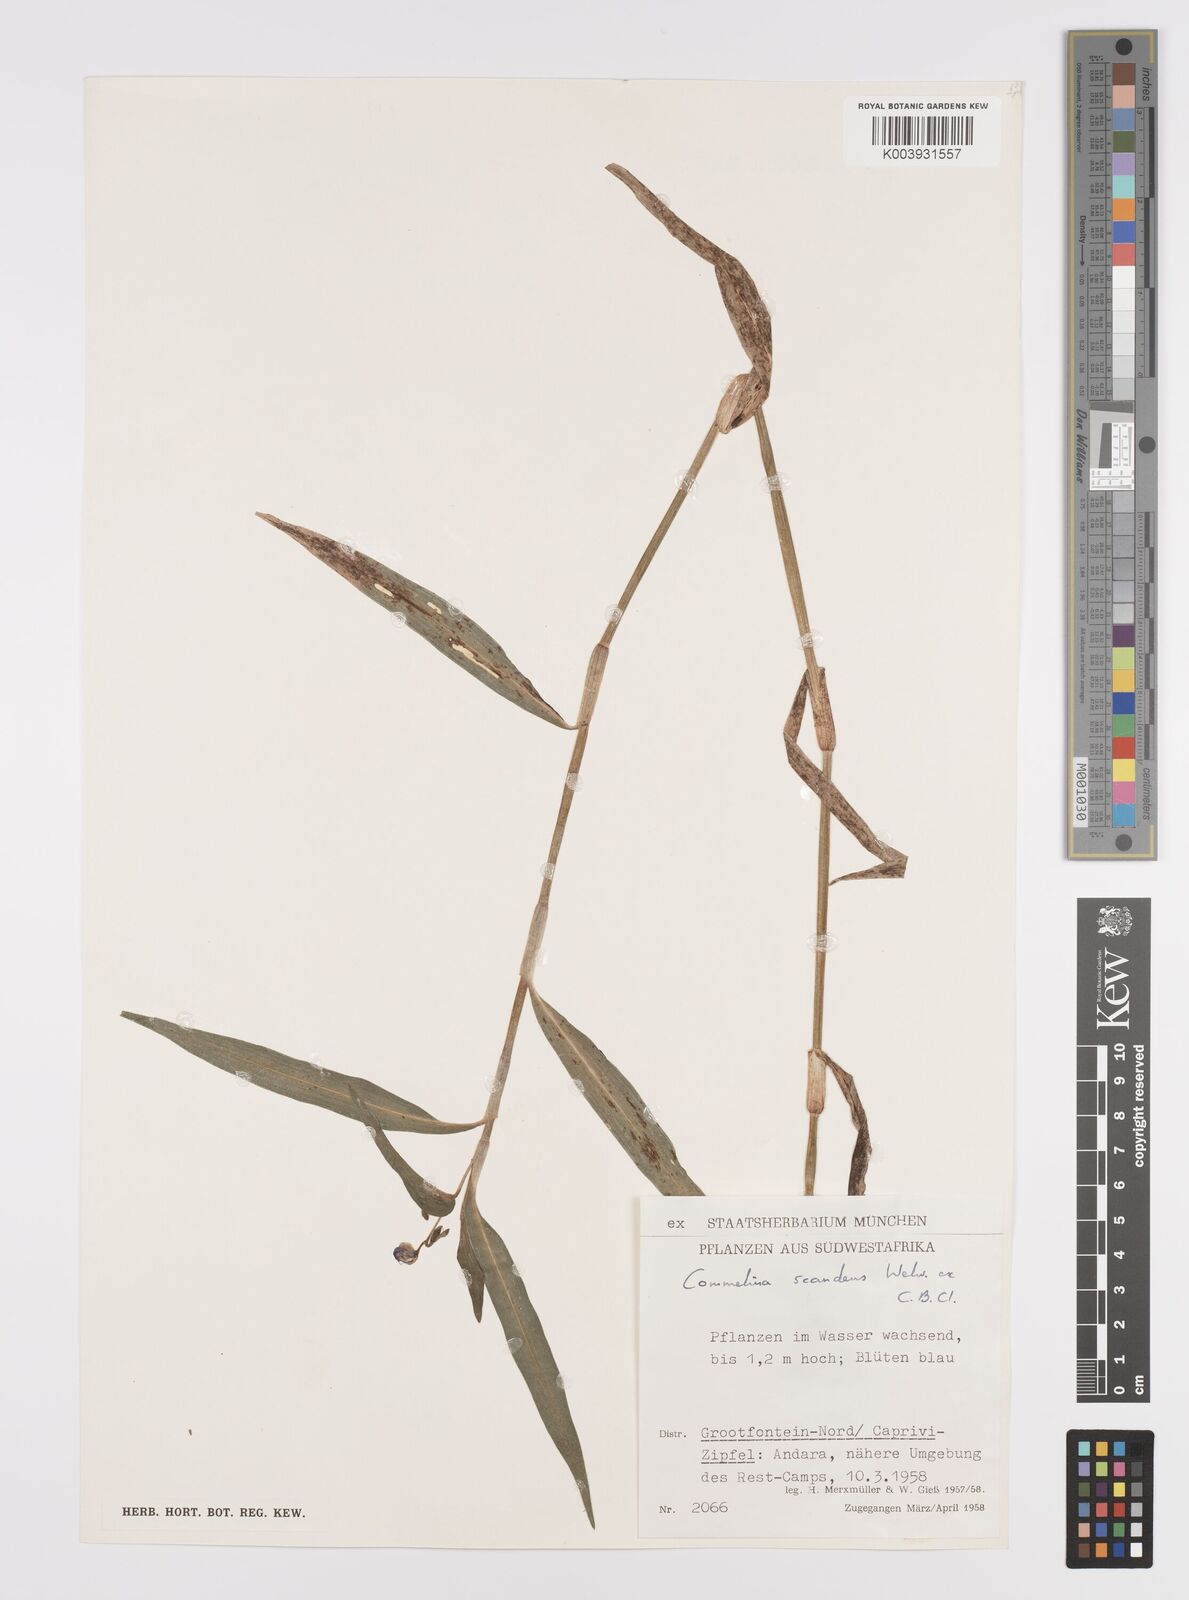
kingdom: Plantae
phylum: Tracheophyta
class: Liliopsida
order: Commelinales
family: Commelinaceae
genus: Commelina
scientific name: Commelina scandens
